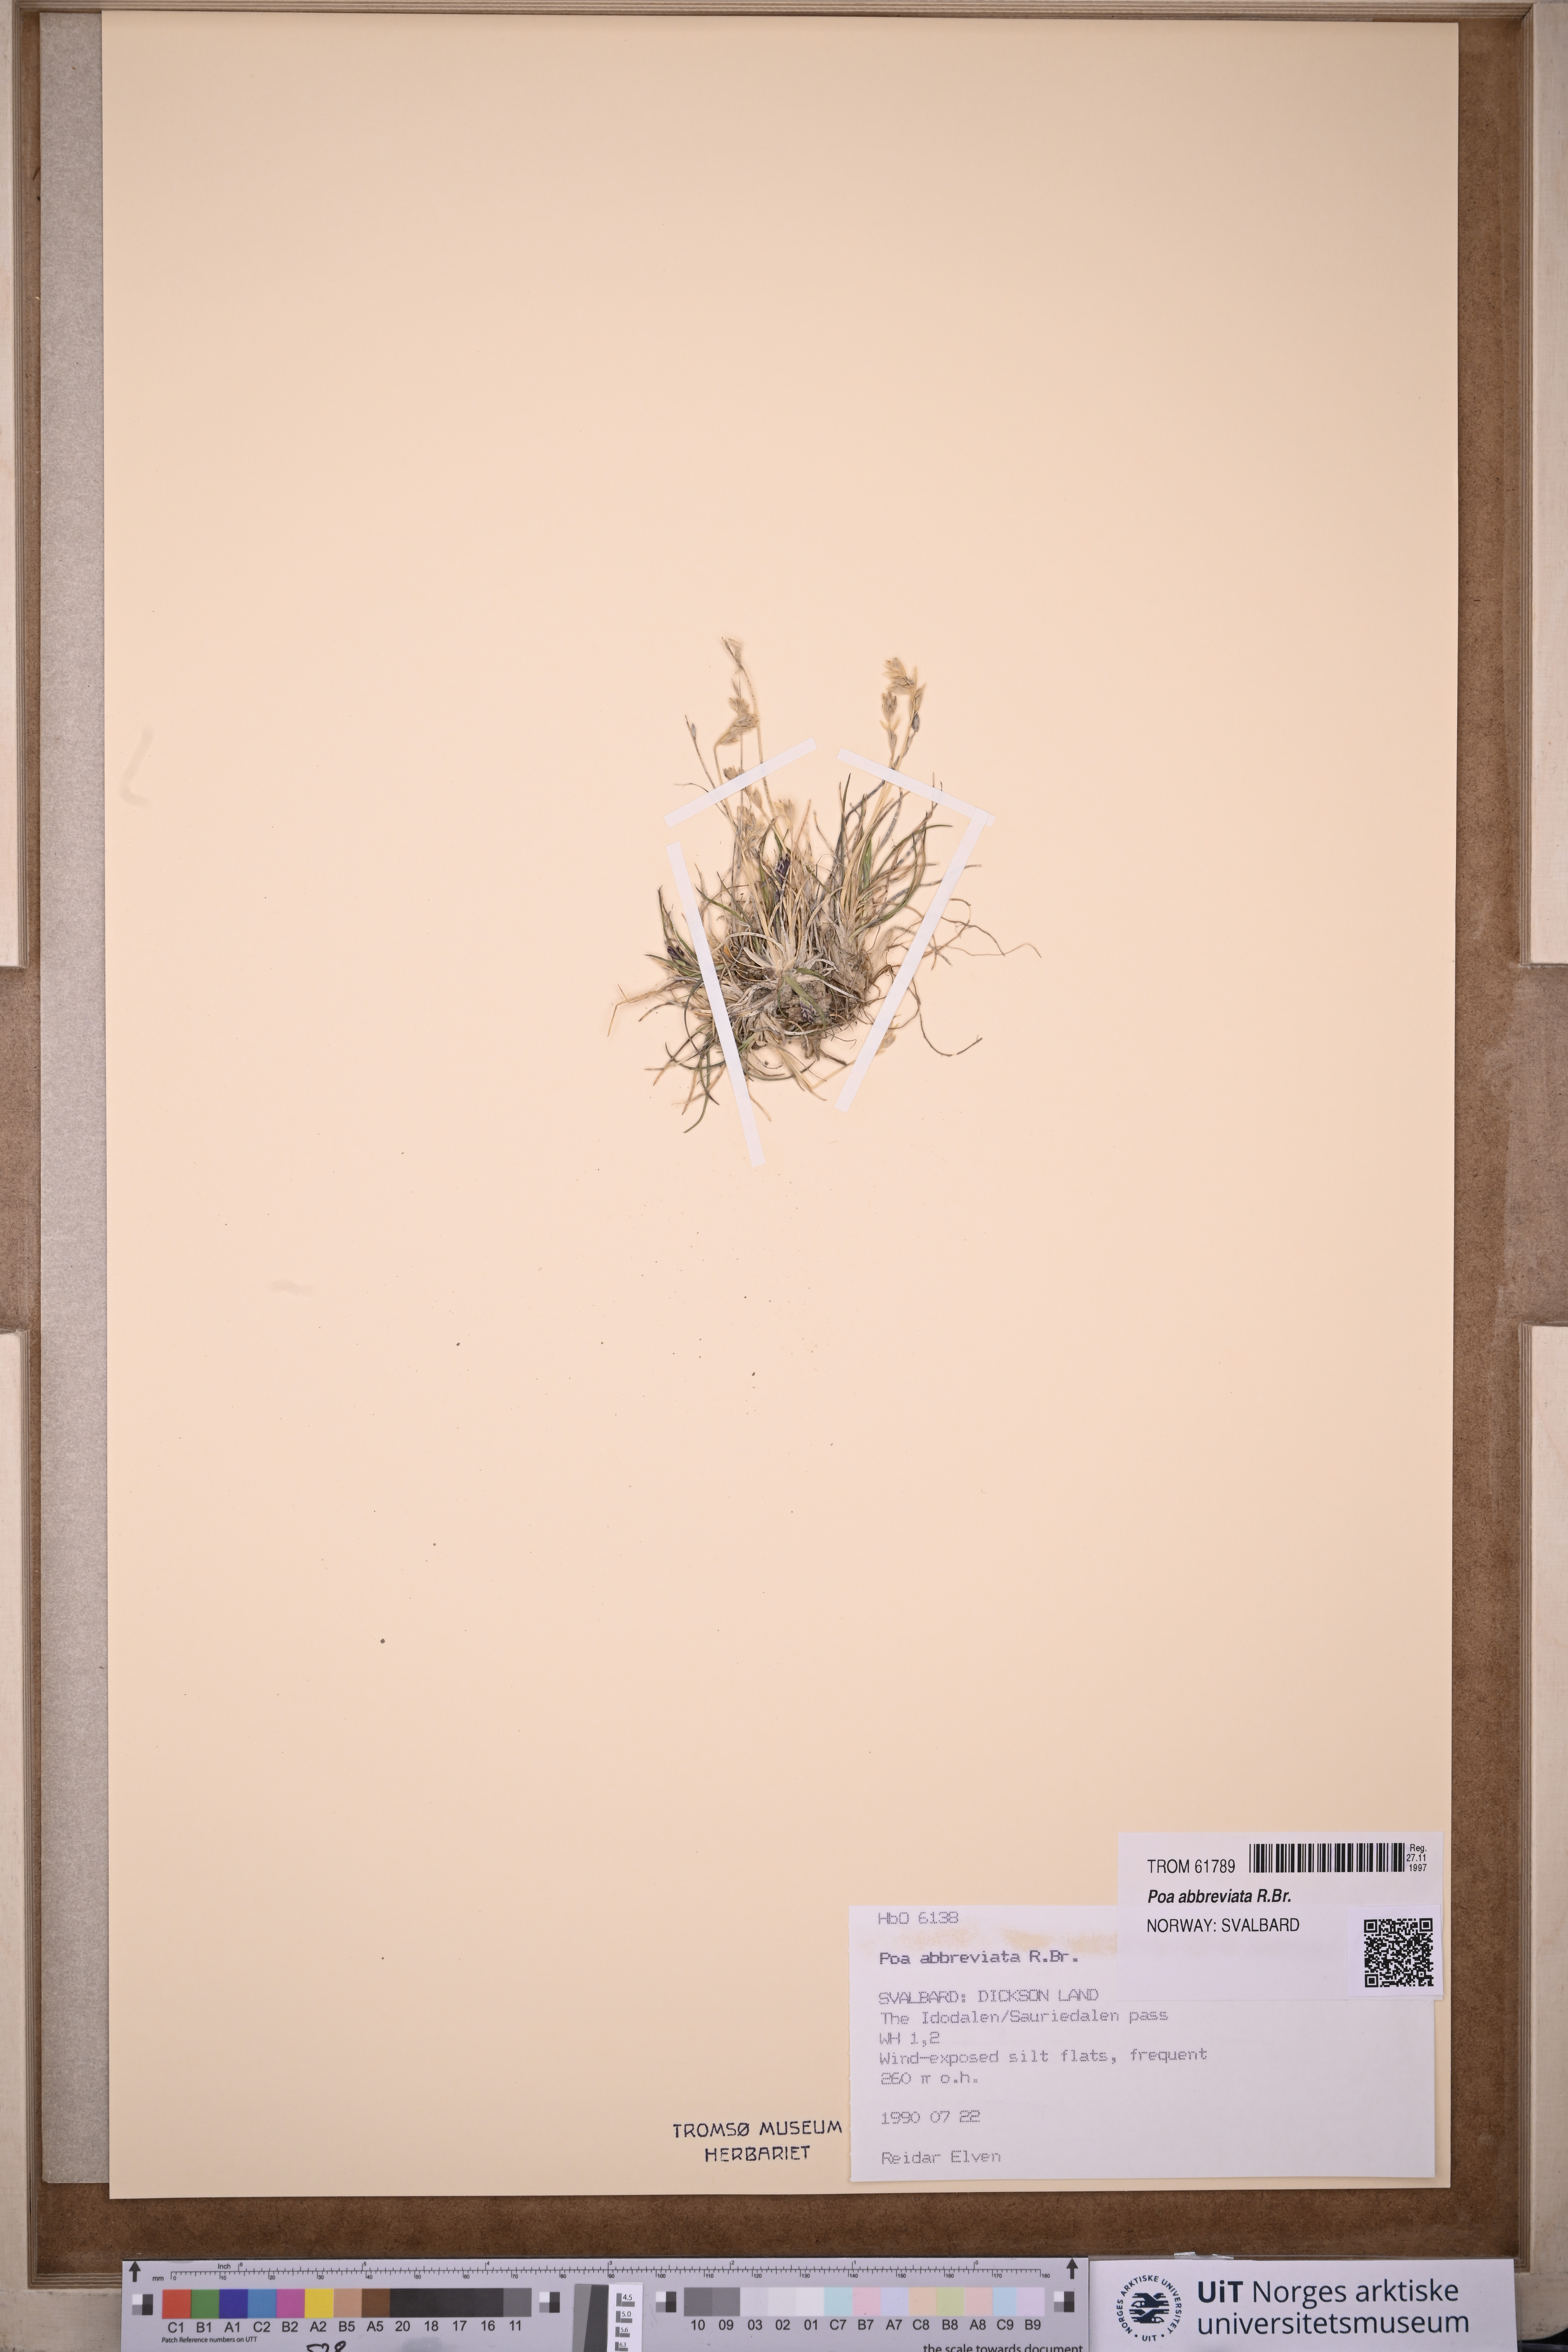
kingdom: Plantae
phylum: Tracheophyta
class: Liliopsida
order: Poales
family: Poaceae
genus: Poa
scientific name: Poa abbreviata
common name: Abbreviated bluegrass
